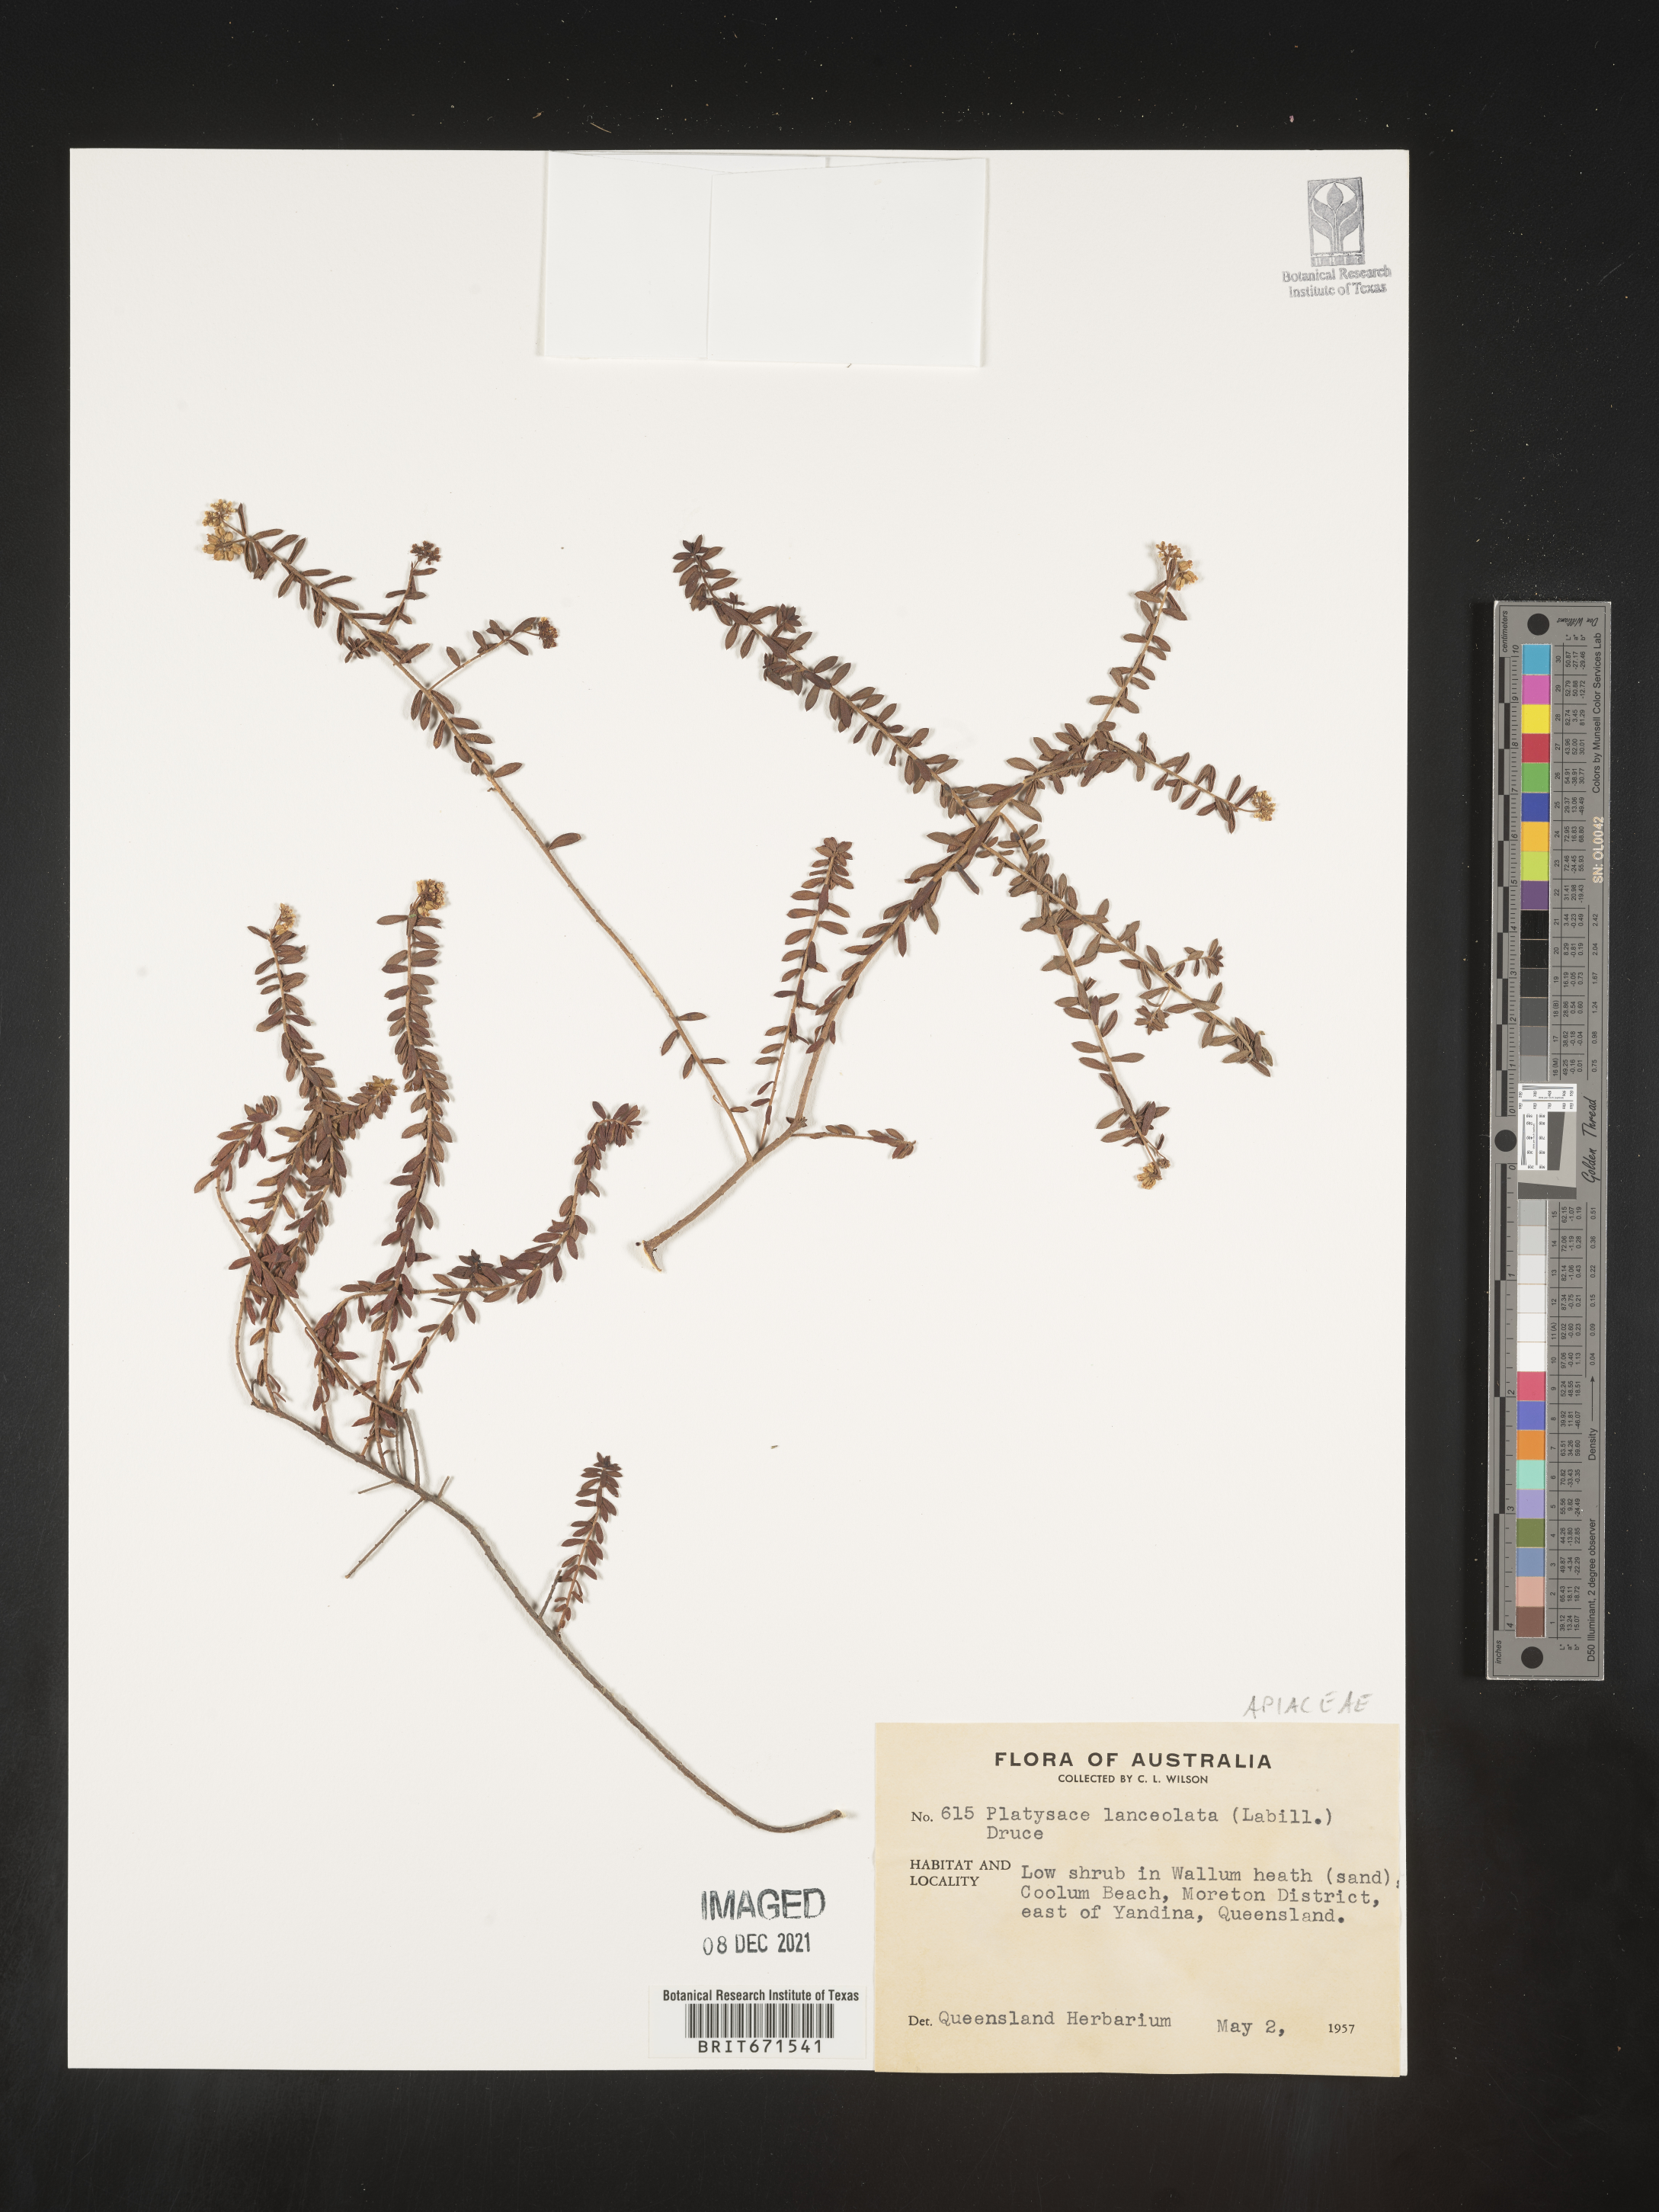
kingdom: Plantae
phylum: Tracheophyta
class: Magnoliopsida
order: Apiales
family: Apiaceae
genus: Platysace
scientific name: Platysace
